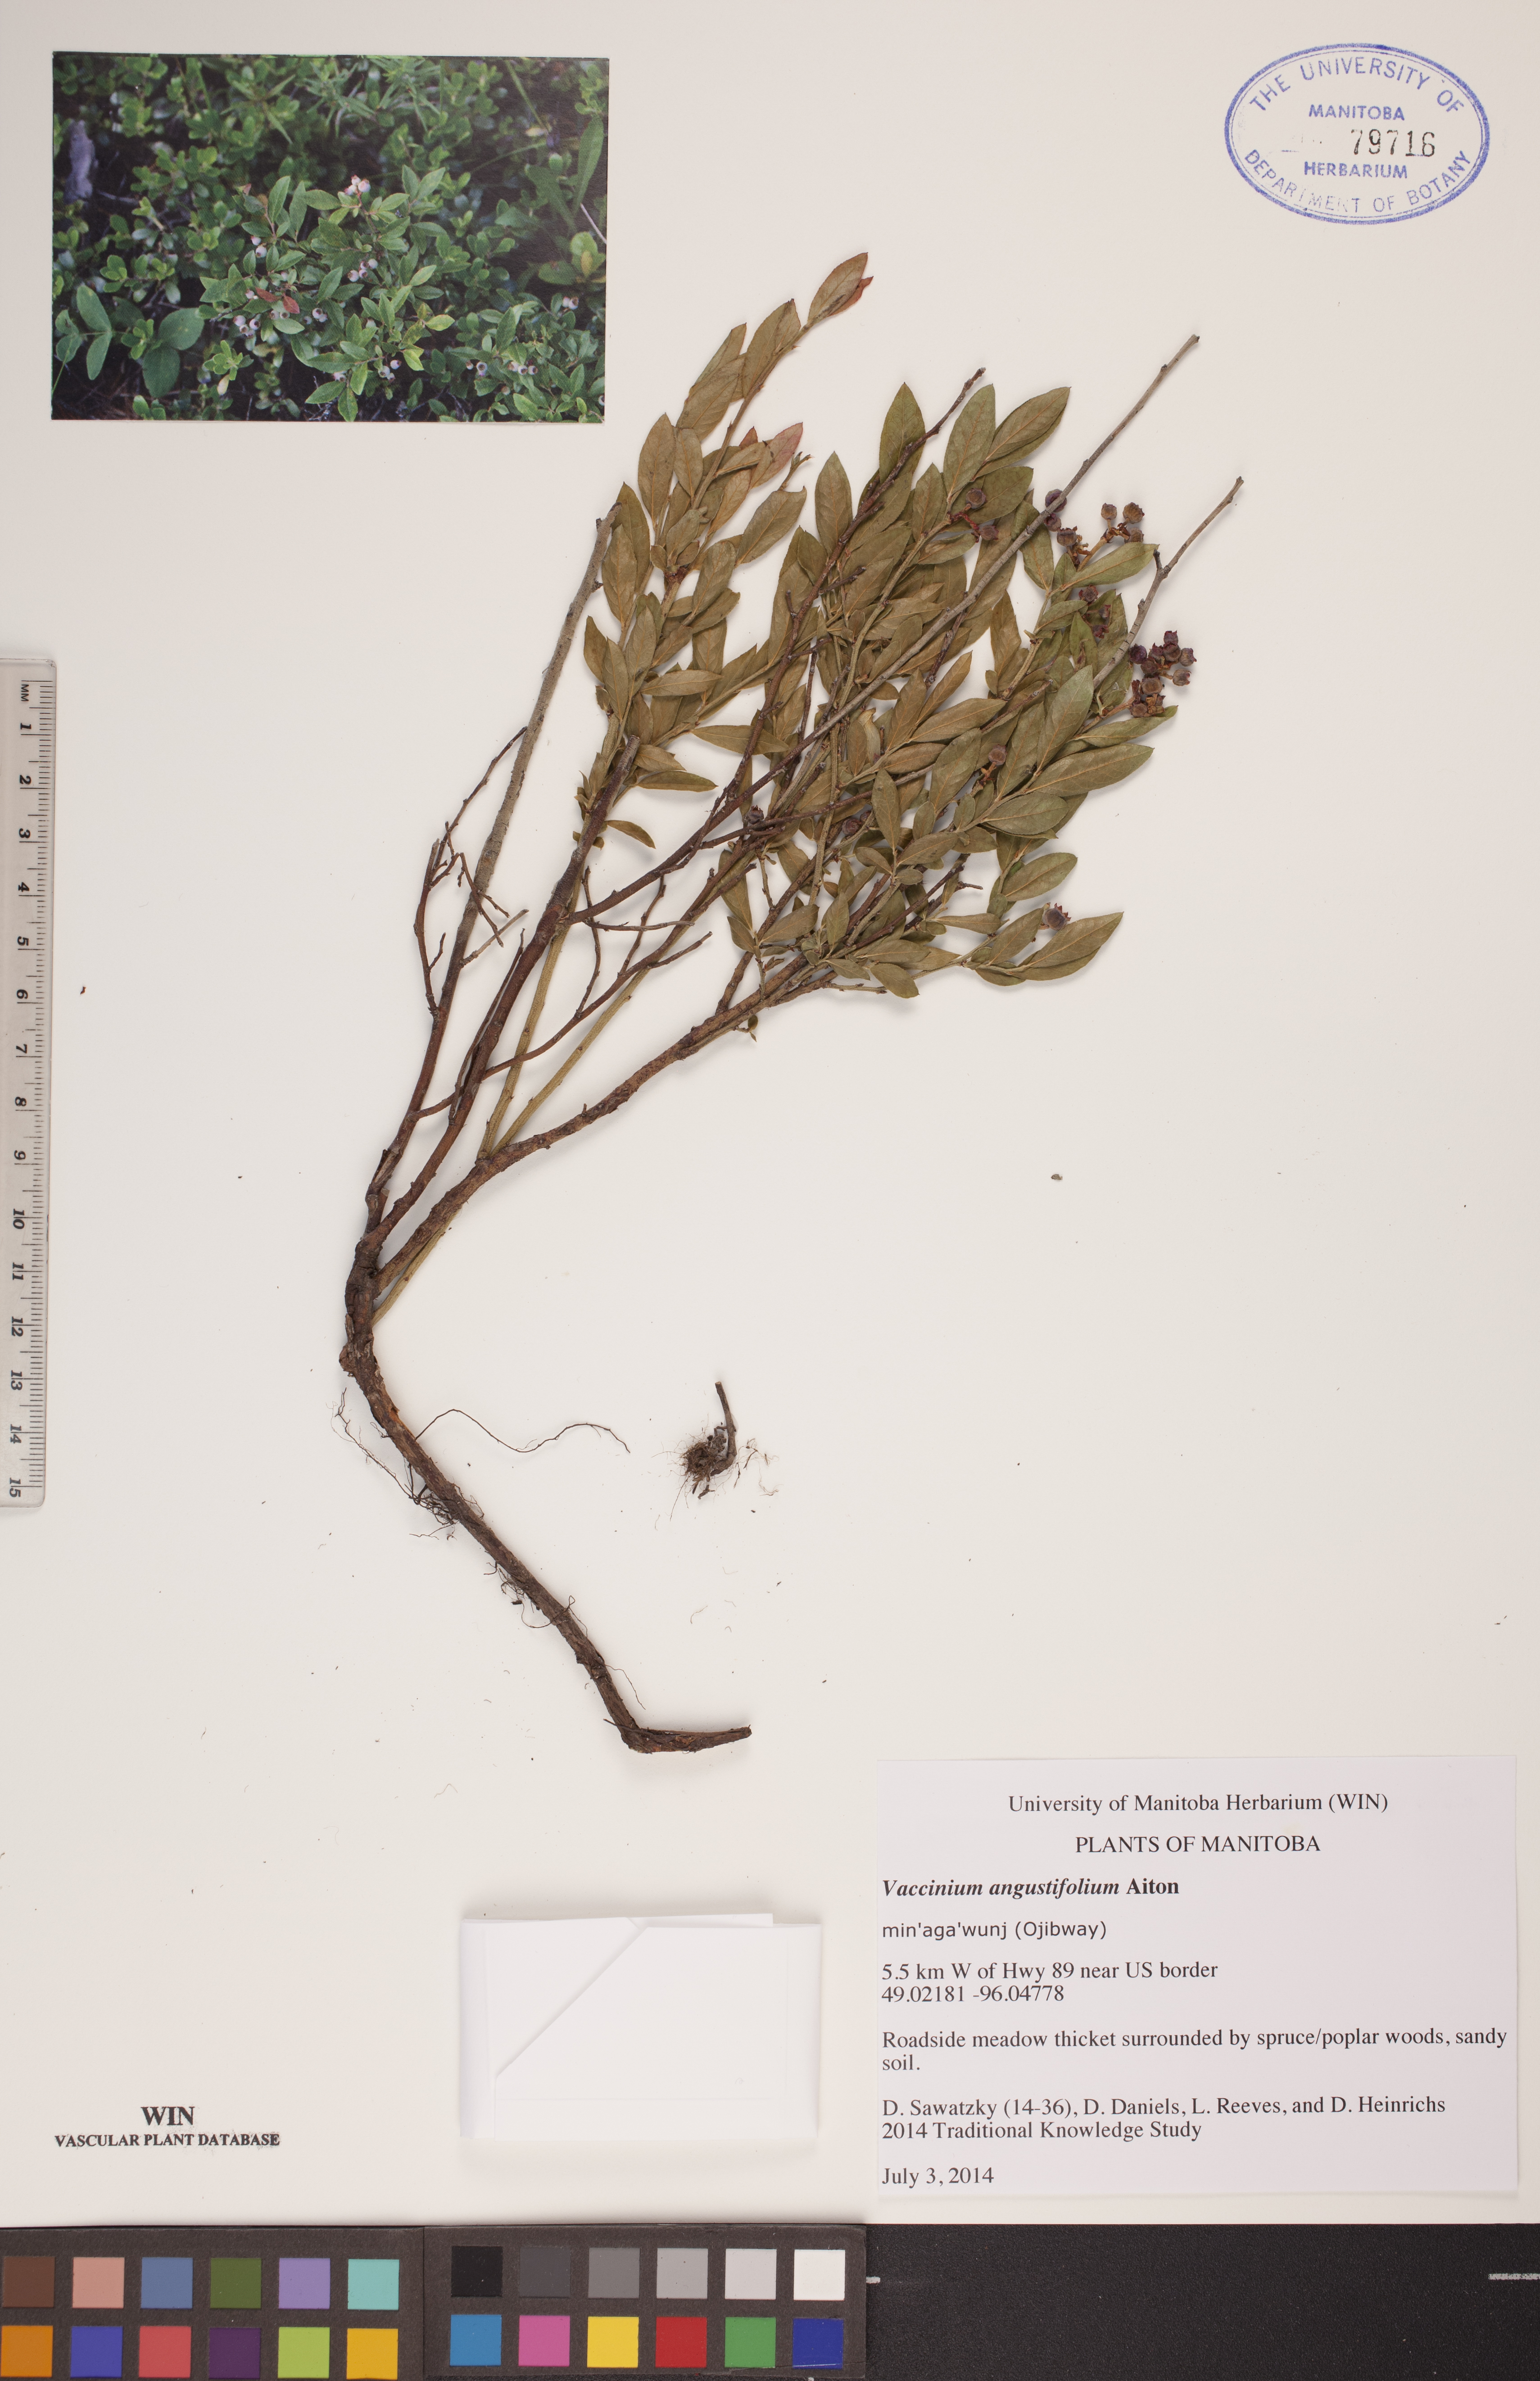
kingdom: Plantae
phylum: Tracheophyta
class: Magnoliopsida
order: Ericales
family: Ericaceae
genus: Vaccinium
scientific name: Vaccinium angustifolium
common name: Early lowbush blueberry
